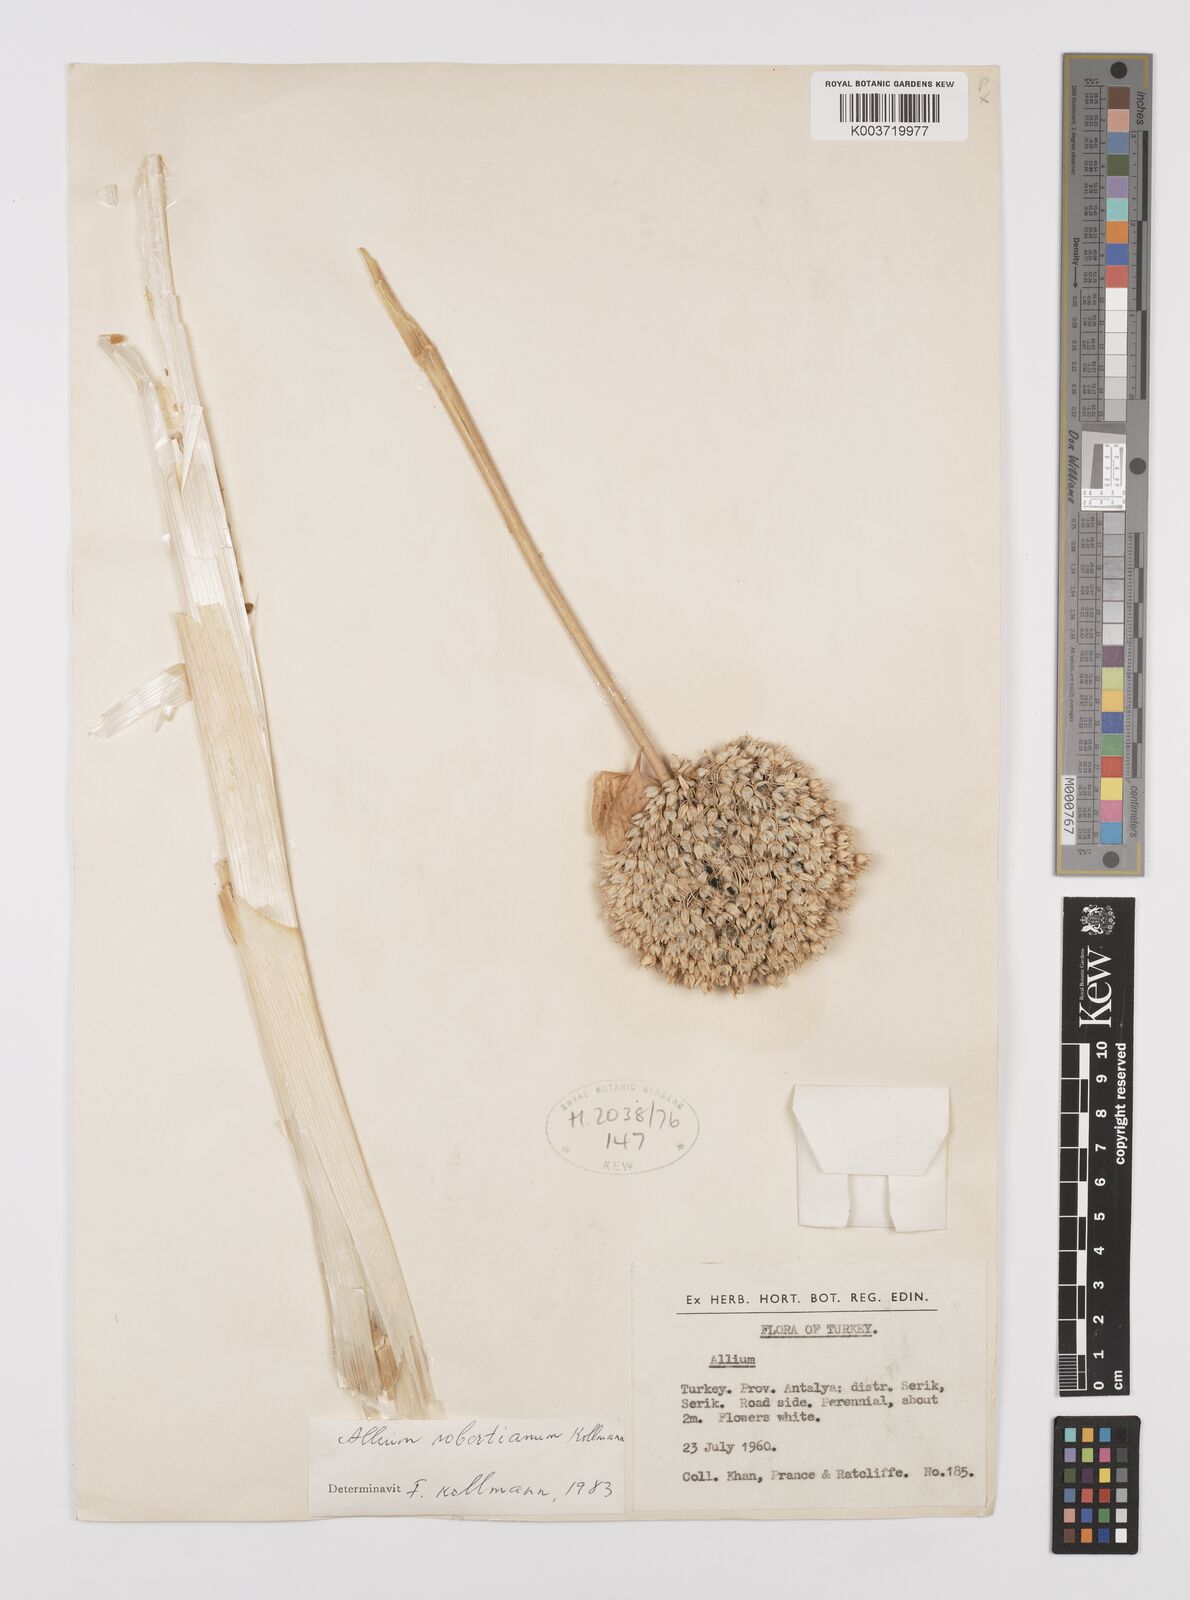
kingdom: Plantae
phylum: Tracheophyta
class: Liliopsida
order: Asparagales
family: Amaryllidaceae
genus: Allium
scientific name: Allium robertianum
